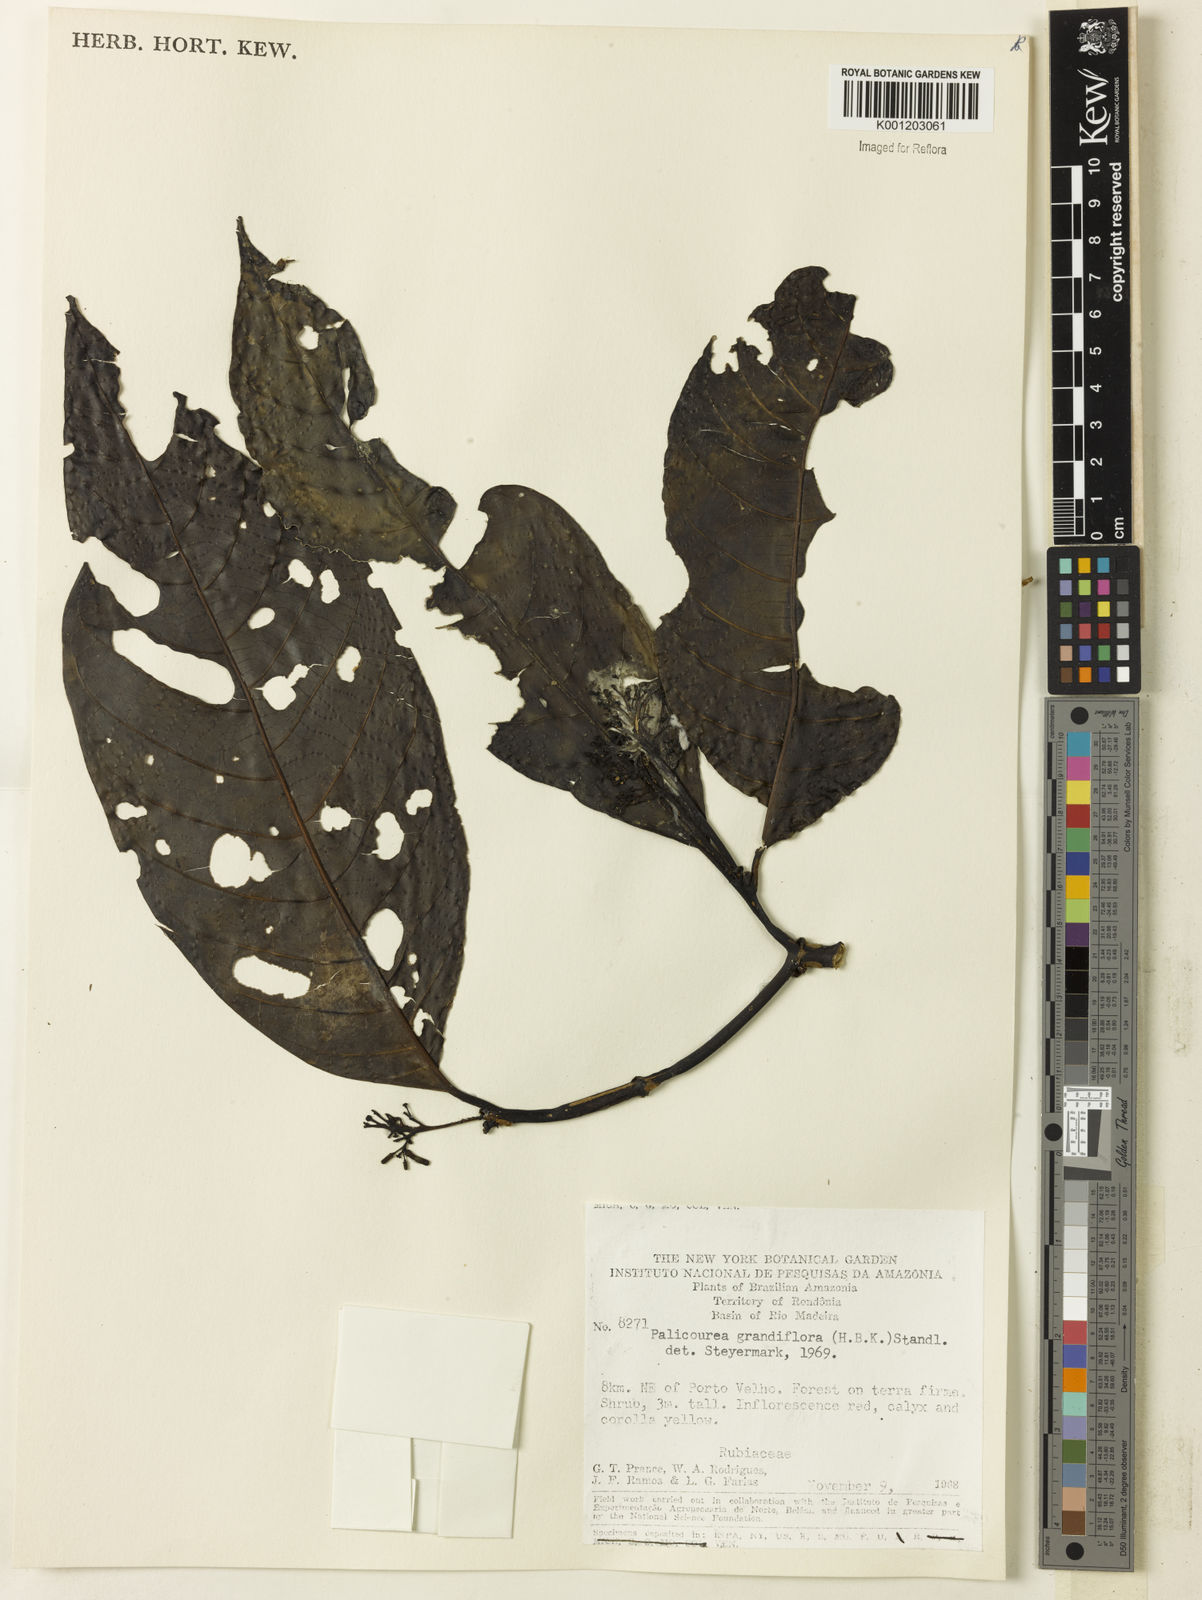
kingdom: Plantae
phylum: Tracheophyta
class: Magnoliopsida
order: Gentianales
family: Rubiaceae
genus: Palicourea
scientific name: Palicourea grandiflora
